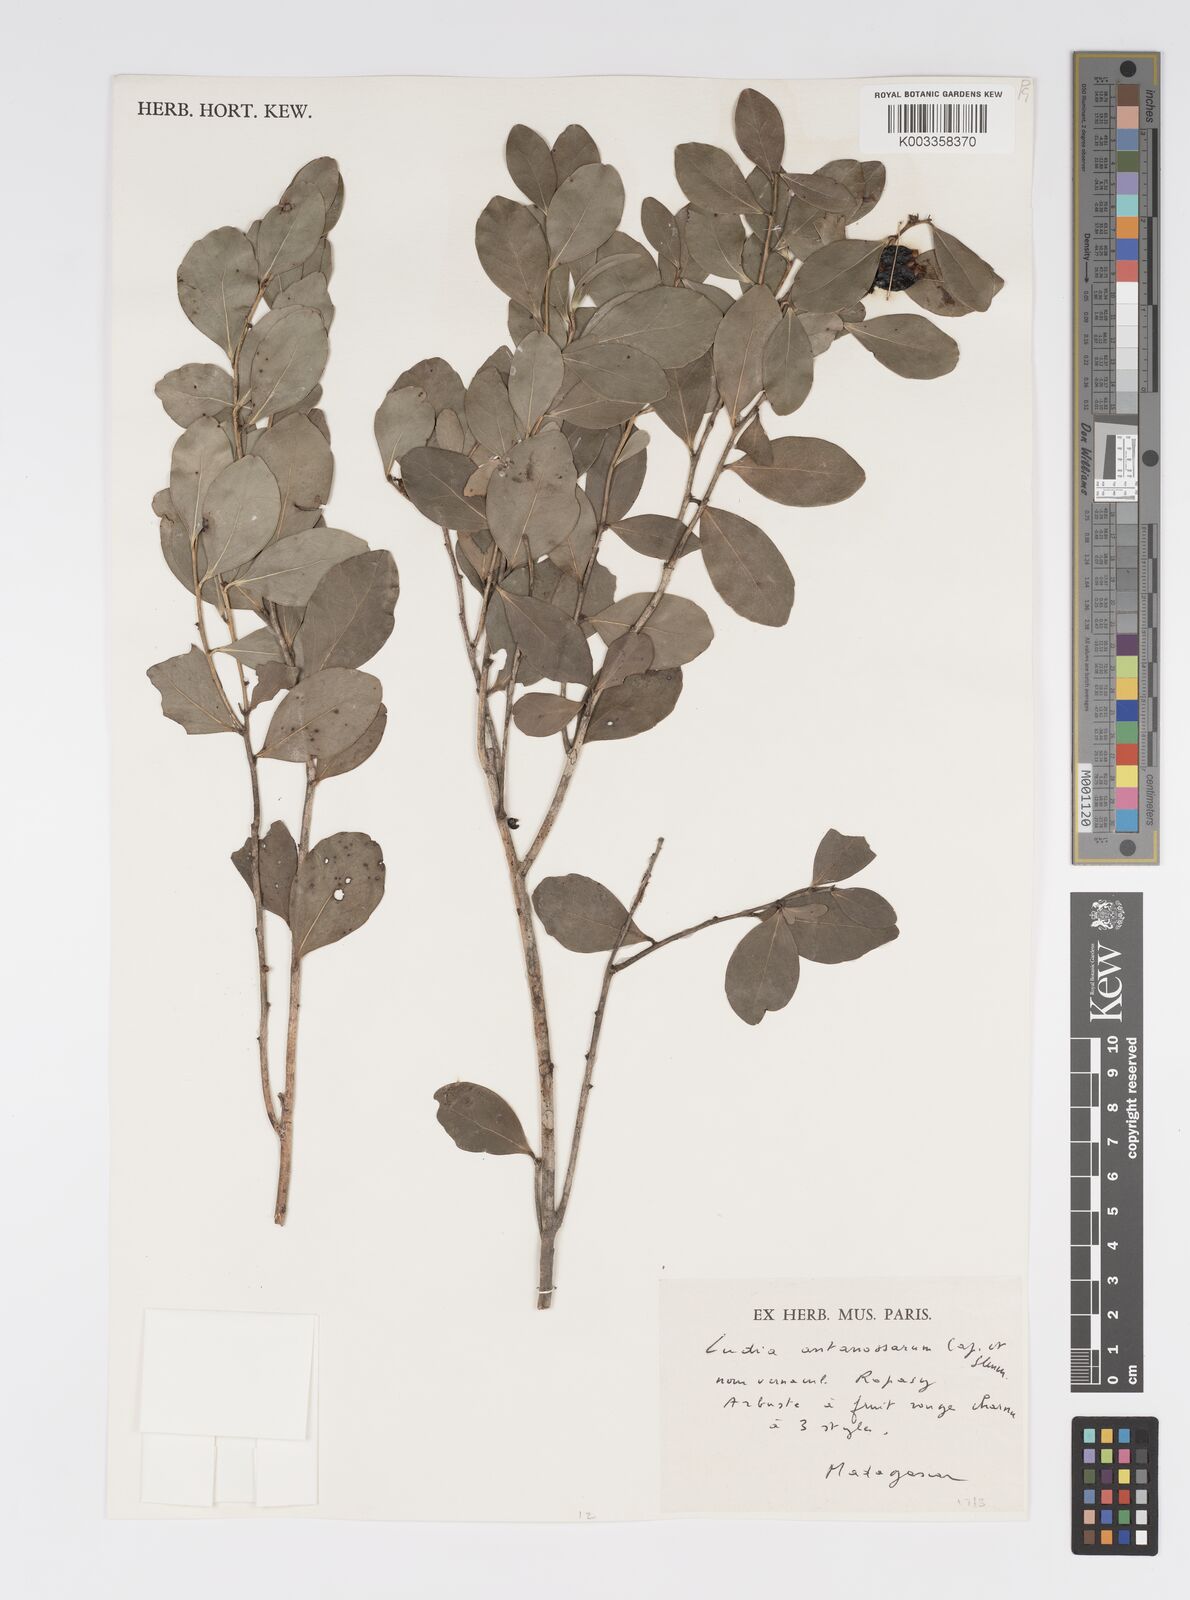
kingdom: Plantae
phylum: Tracheophyta
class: Magnoliopsida
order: Malpighiales
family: Salicaceae
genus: Ludia
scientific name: Ludia antanosarum
